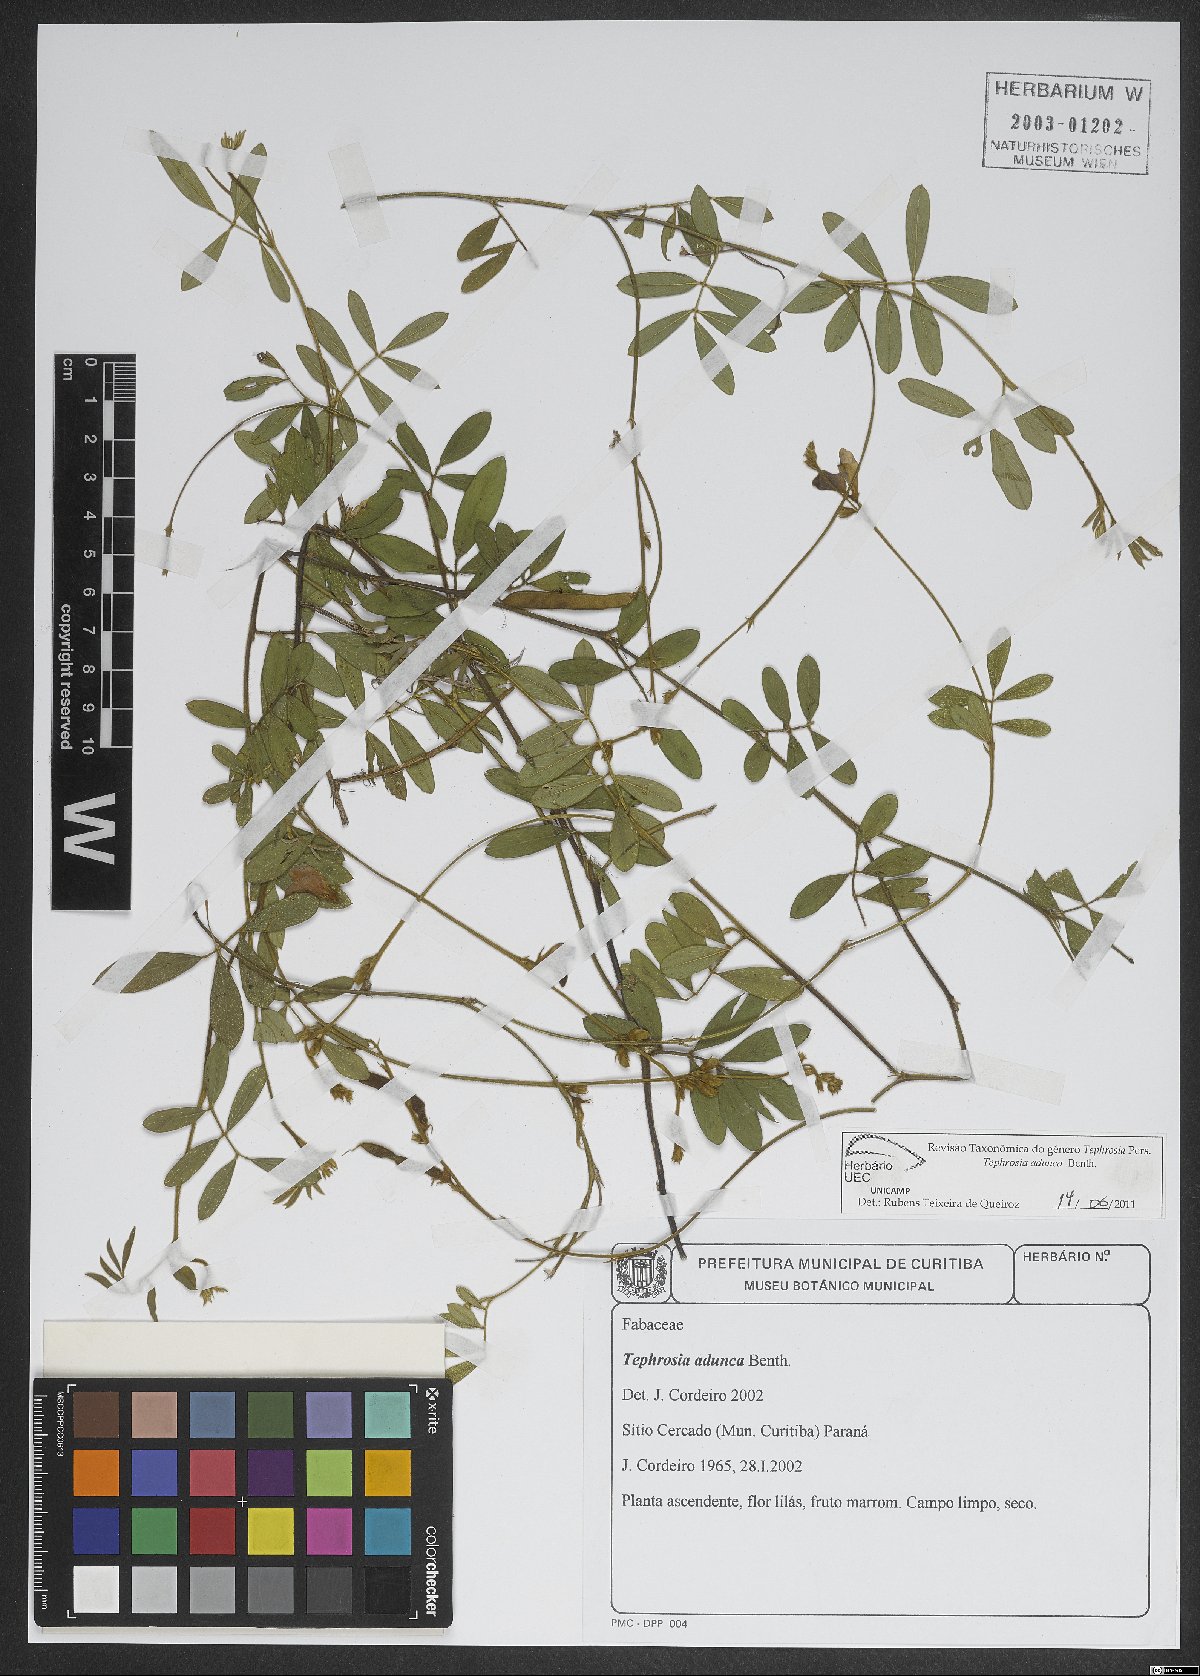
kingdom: Plantae
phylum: Tracheophyta
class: Magnoliopsida
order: Fabales
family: Fabaceae
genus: Tephrosia
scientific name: Tephrosia adunca
